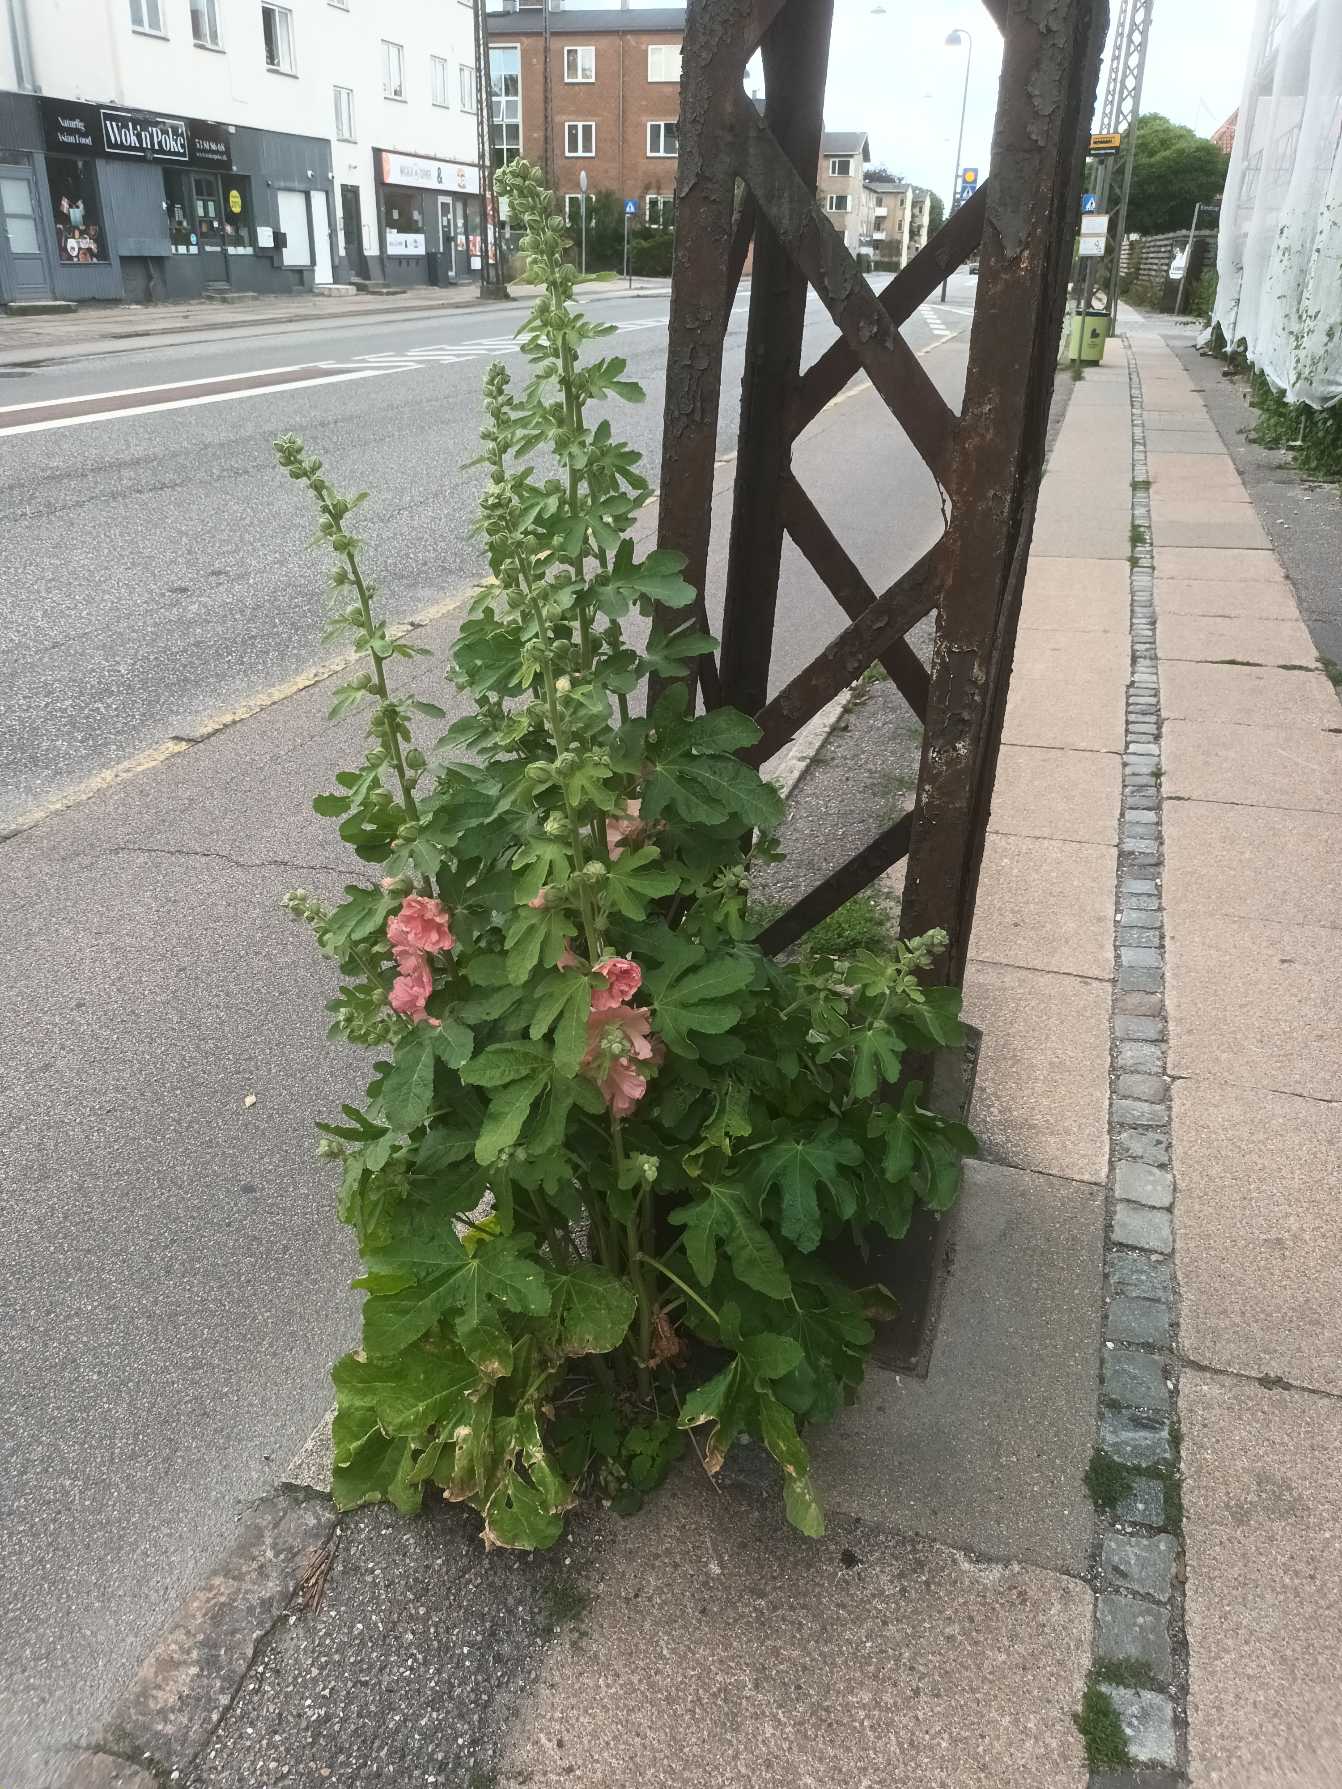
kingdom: Plantae
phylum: Tracheophyta
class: Magnoliopsida
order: Malvales
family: Malvaceae
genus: Alcea
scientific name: Alcea rosea
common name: Have-stokrose
